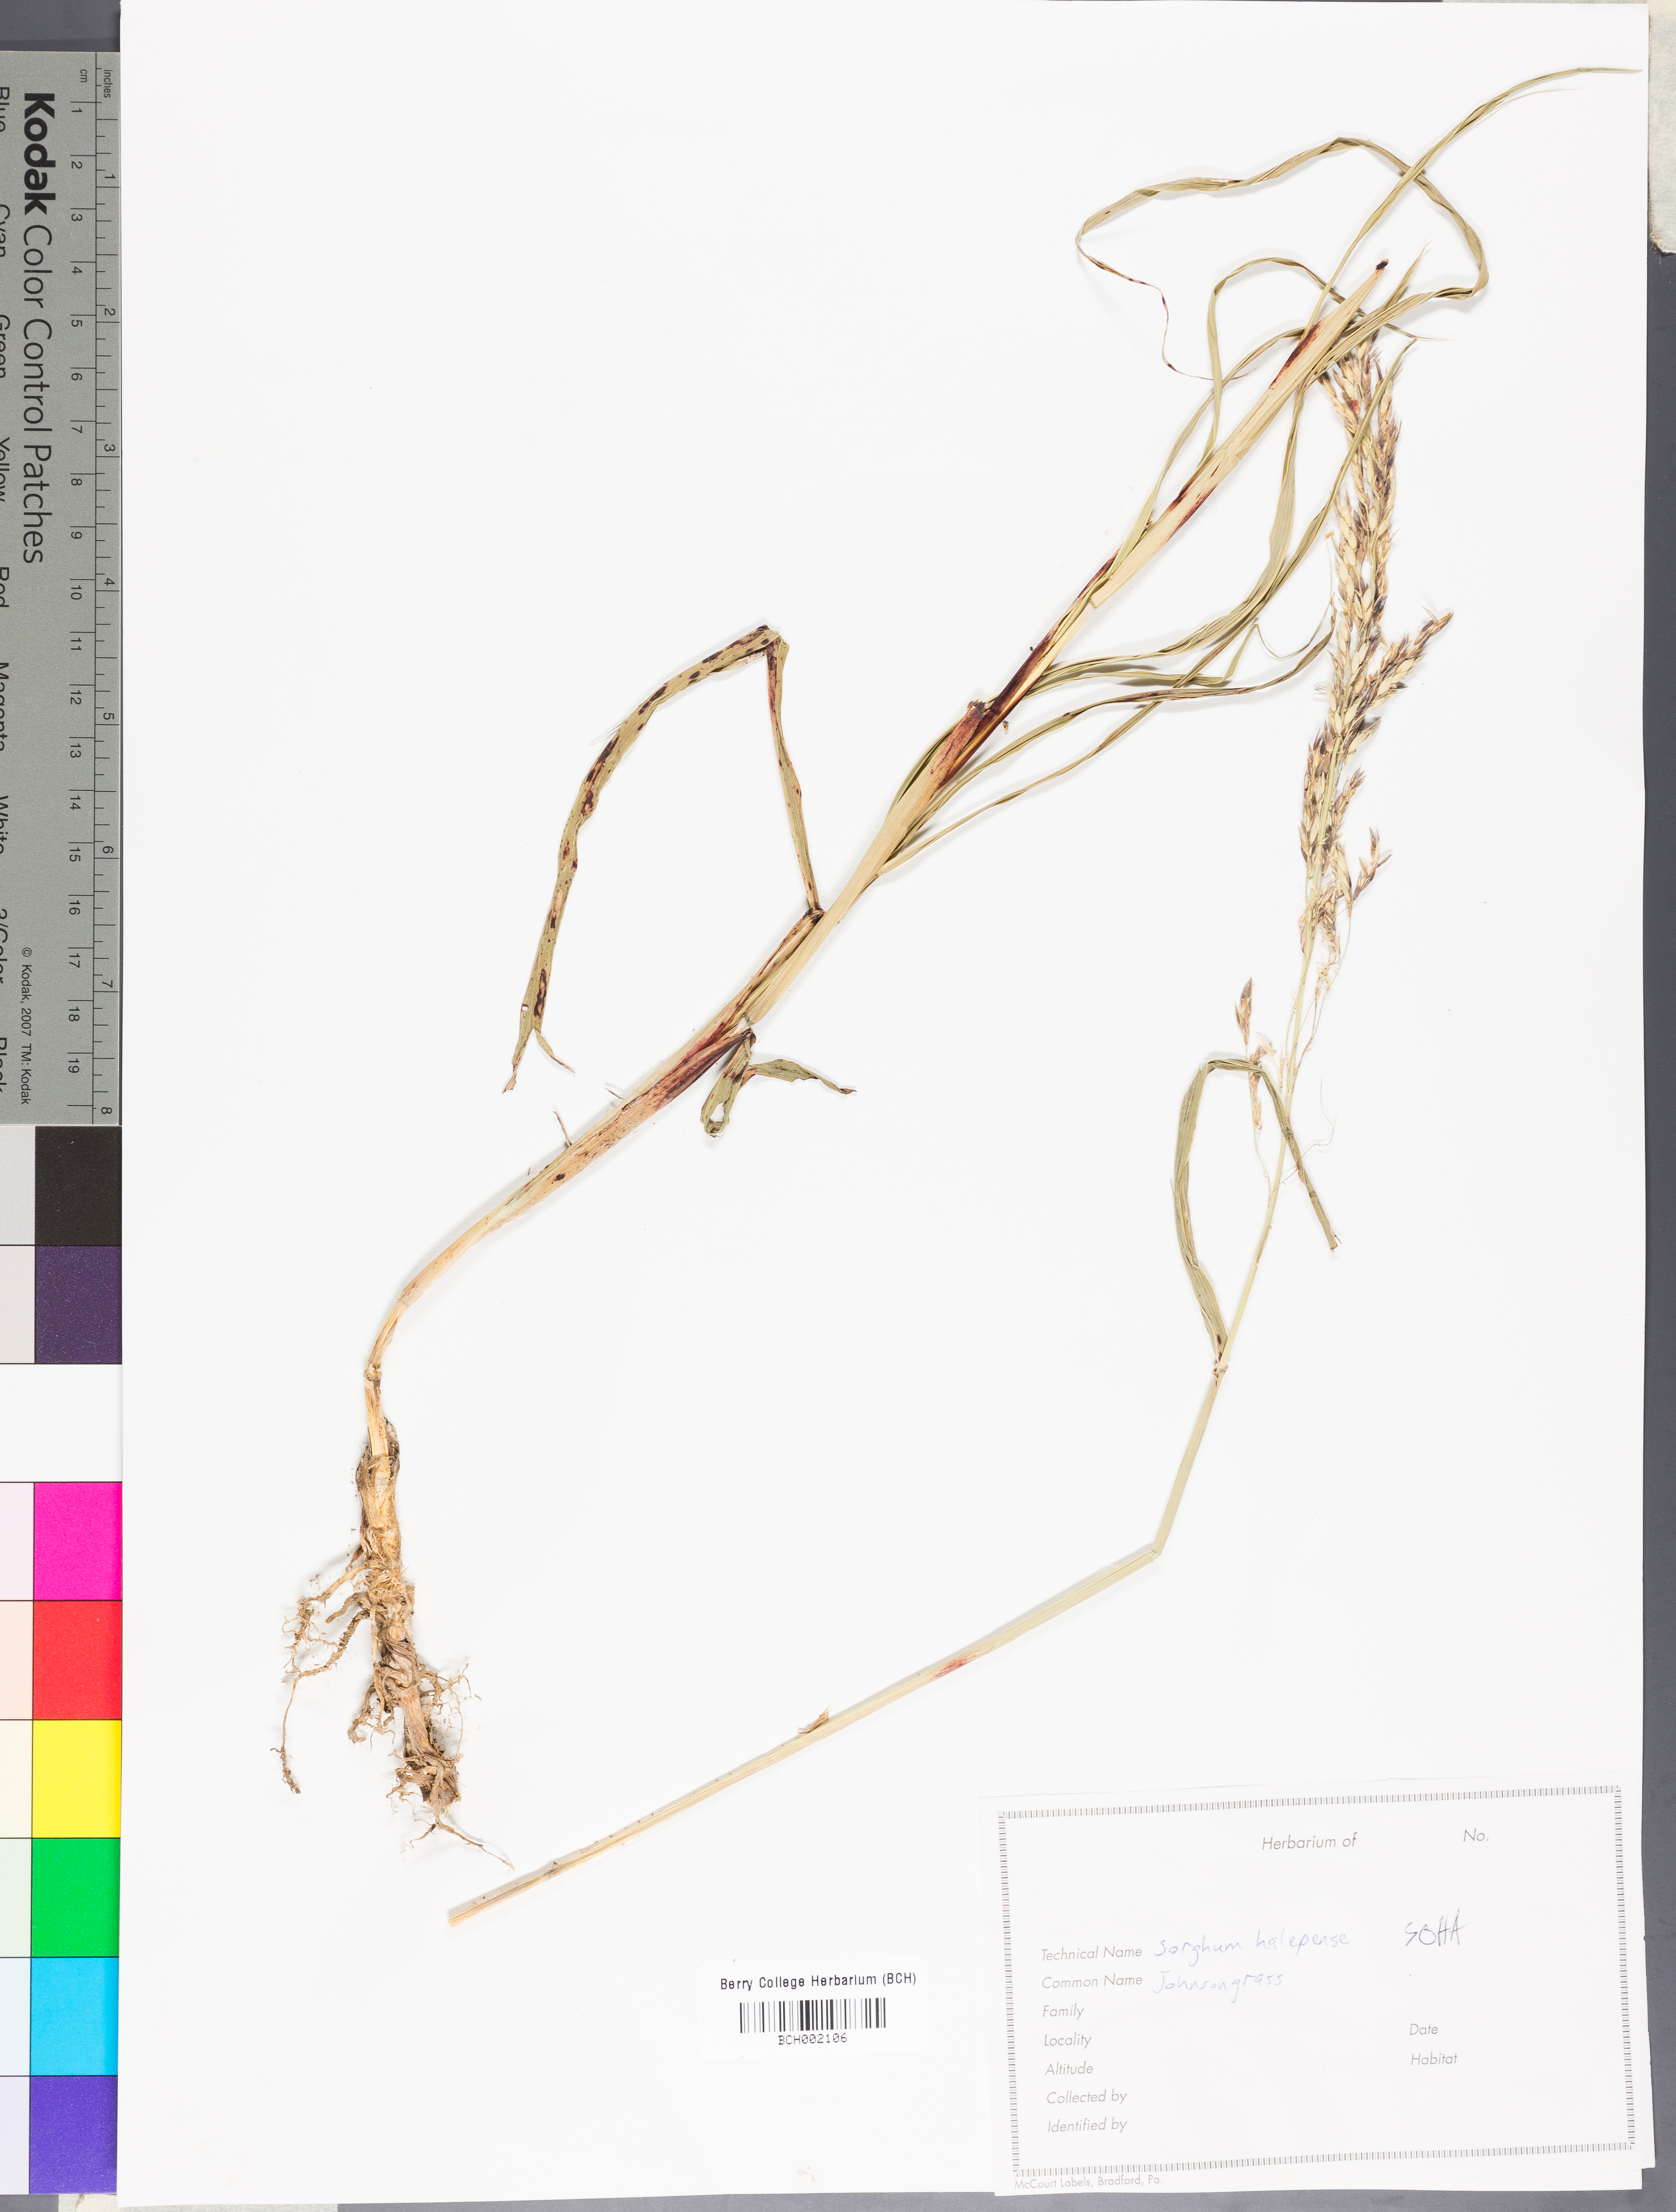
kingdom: Plantae
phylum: Tracheophyta
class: Liliopsida
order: Poales
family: Poaceae
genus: Sorghum
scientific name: Sorghum halepense
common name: Johnson-grass
